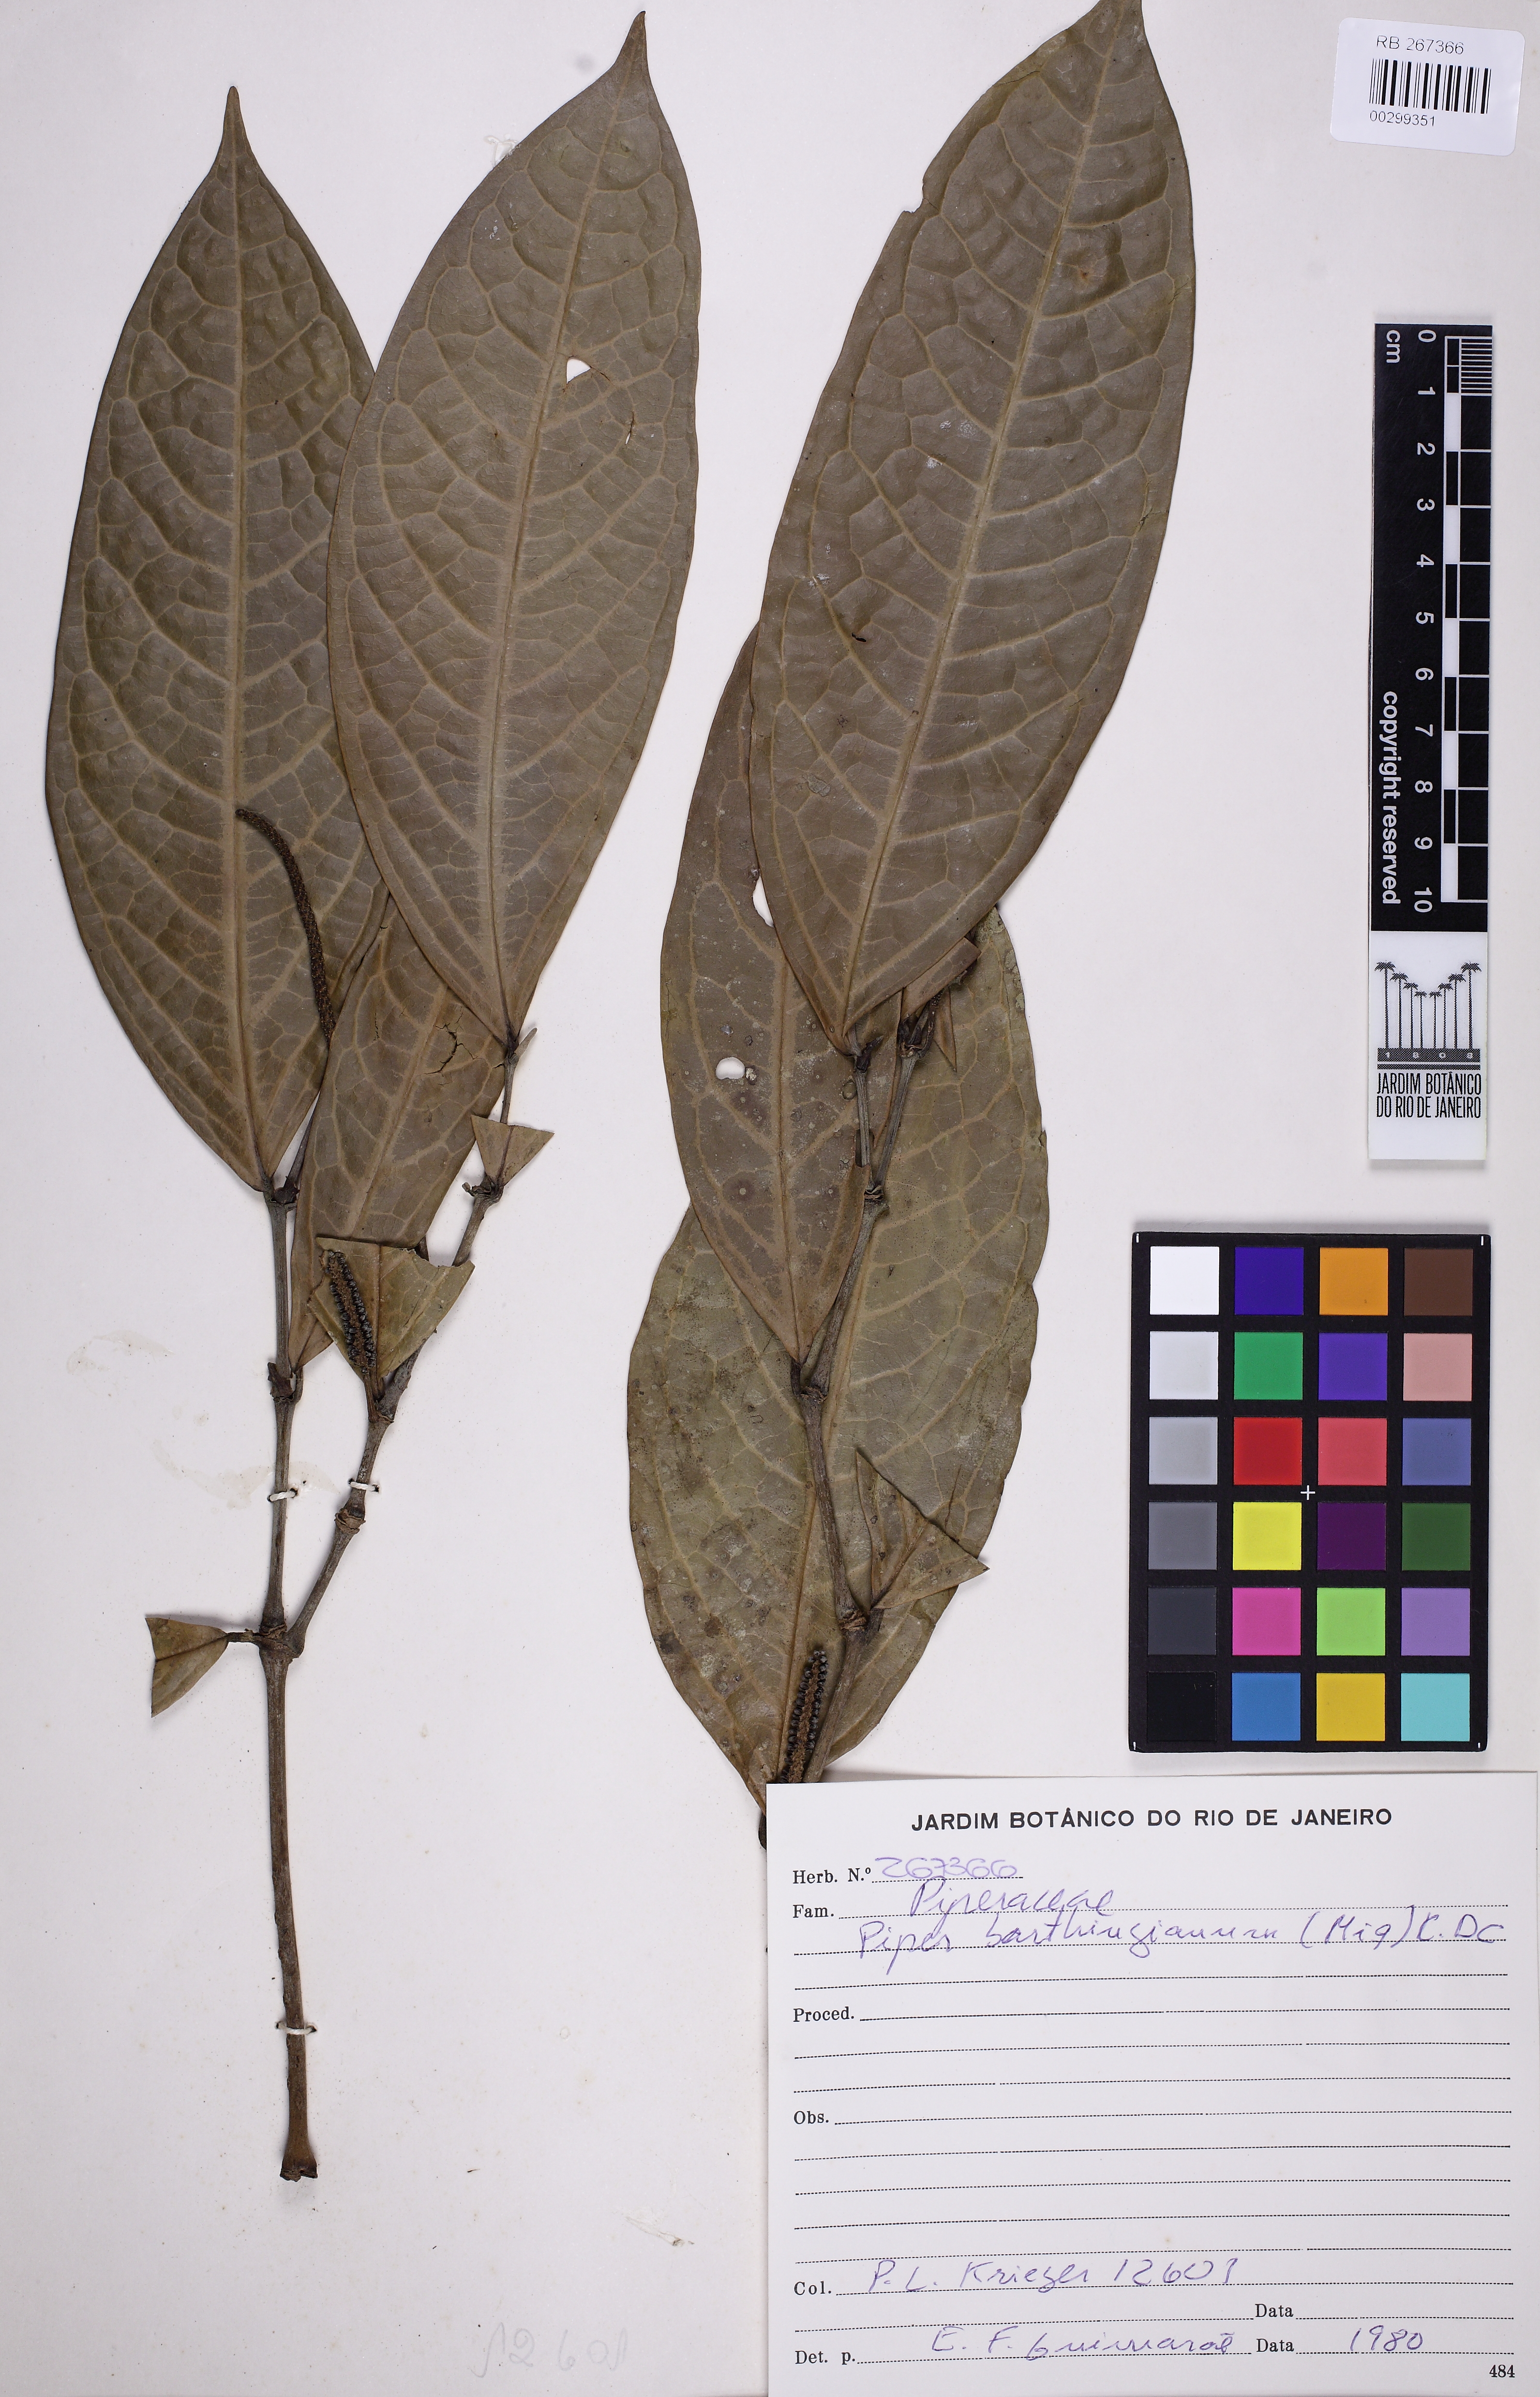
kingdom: Plantae
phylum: Tracheophyta
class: Magnoliopsida
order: Piperales
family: Piperaceae
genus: Piper
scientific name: Piper bartlingianum
